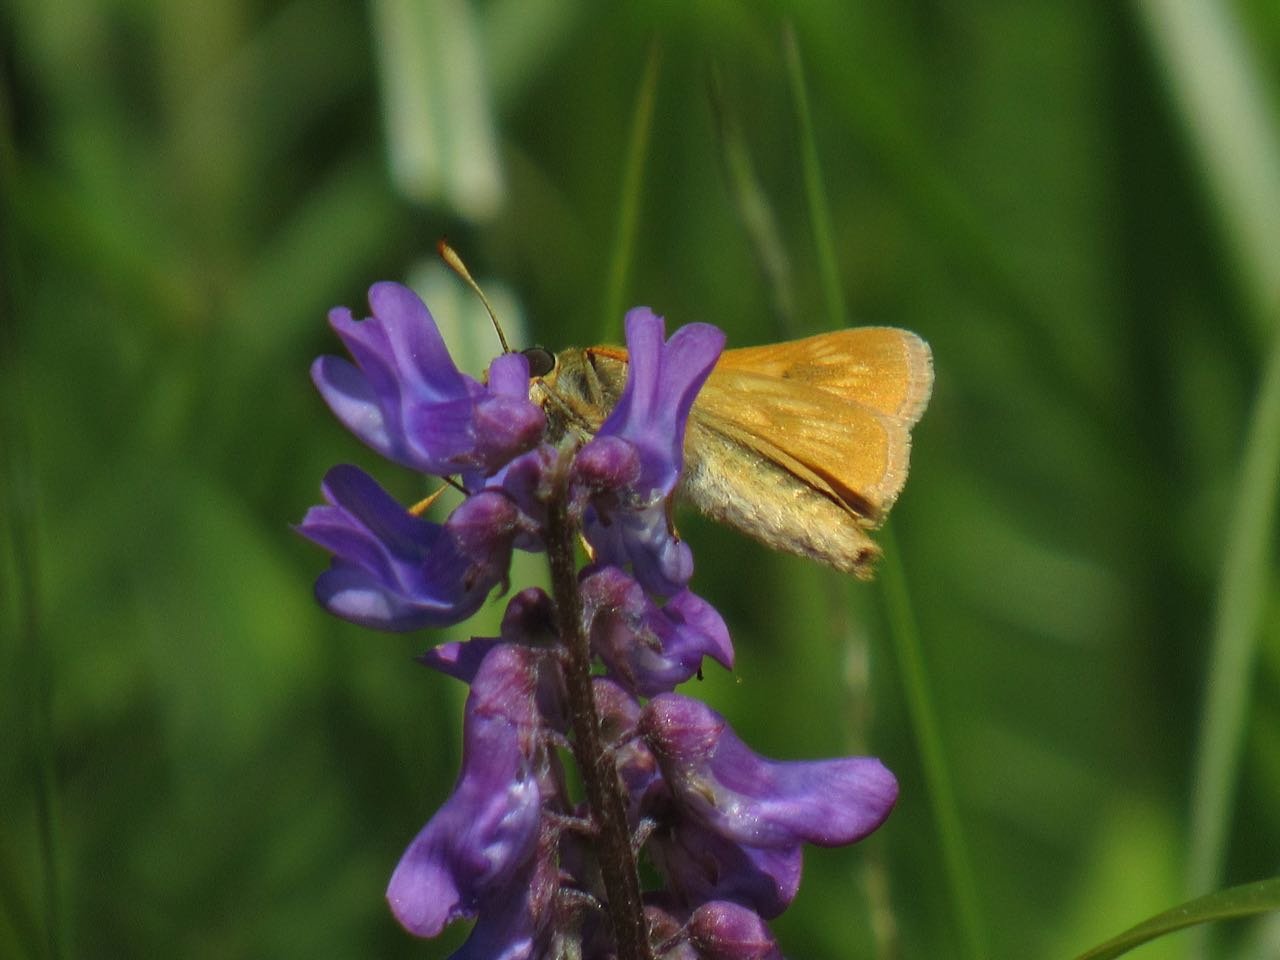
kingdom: Animalia
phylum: Arthropoda
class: Insecta
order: Lepidoptera
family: Hesperiidae
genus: Polites
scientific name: Polites
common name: Long Dash Skipper
